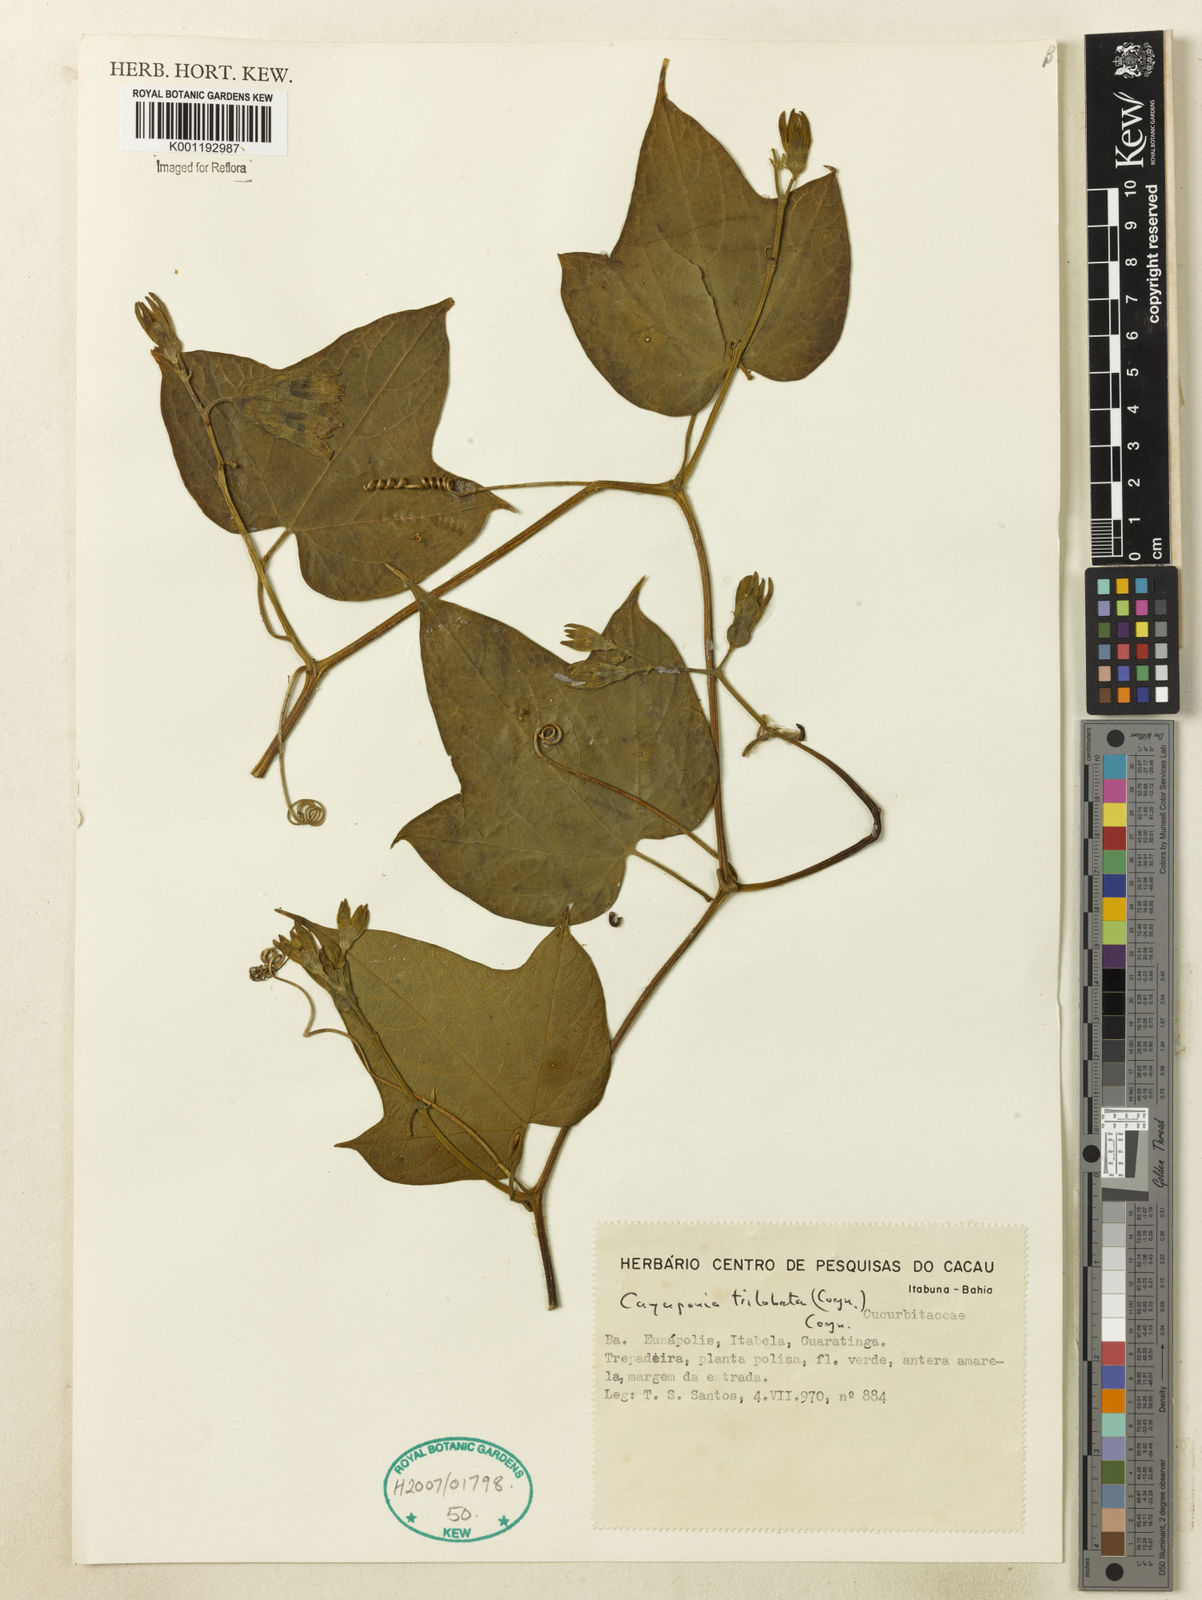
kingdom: Plantae
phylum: Tracheophyta
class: Magnoliopsida
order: Cucurbitales
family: Cucurbitaceae
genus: Cayaponia
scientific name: Cayaponia trilobata
